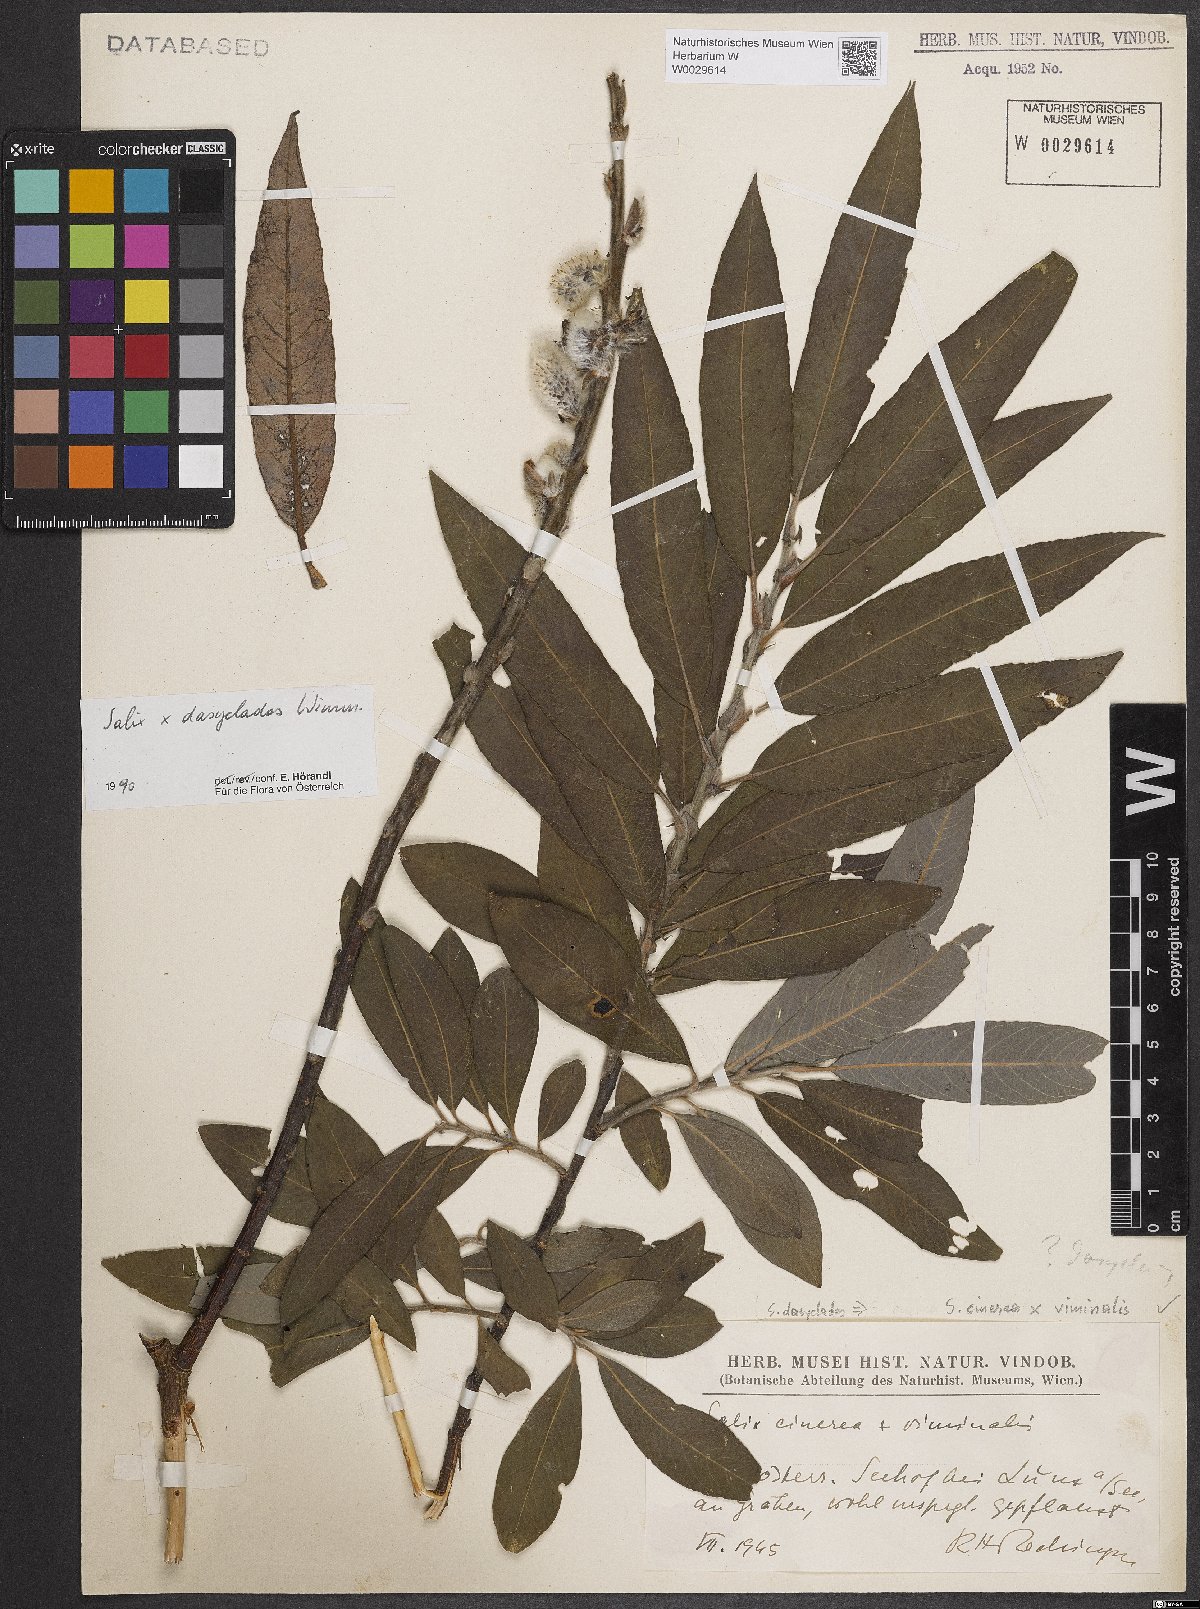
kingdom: Plantae
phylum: Tracheophyta
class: Magnoliopsida
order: Malpighiales
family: Salicaceae
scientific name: Salicaceae
